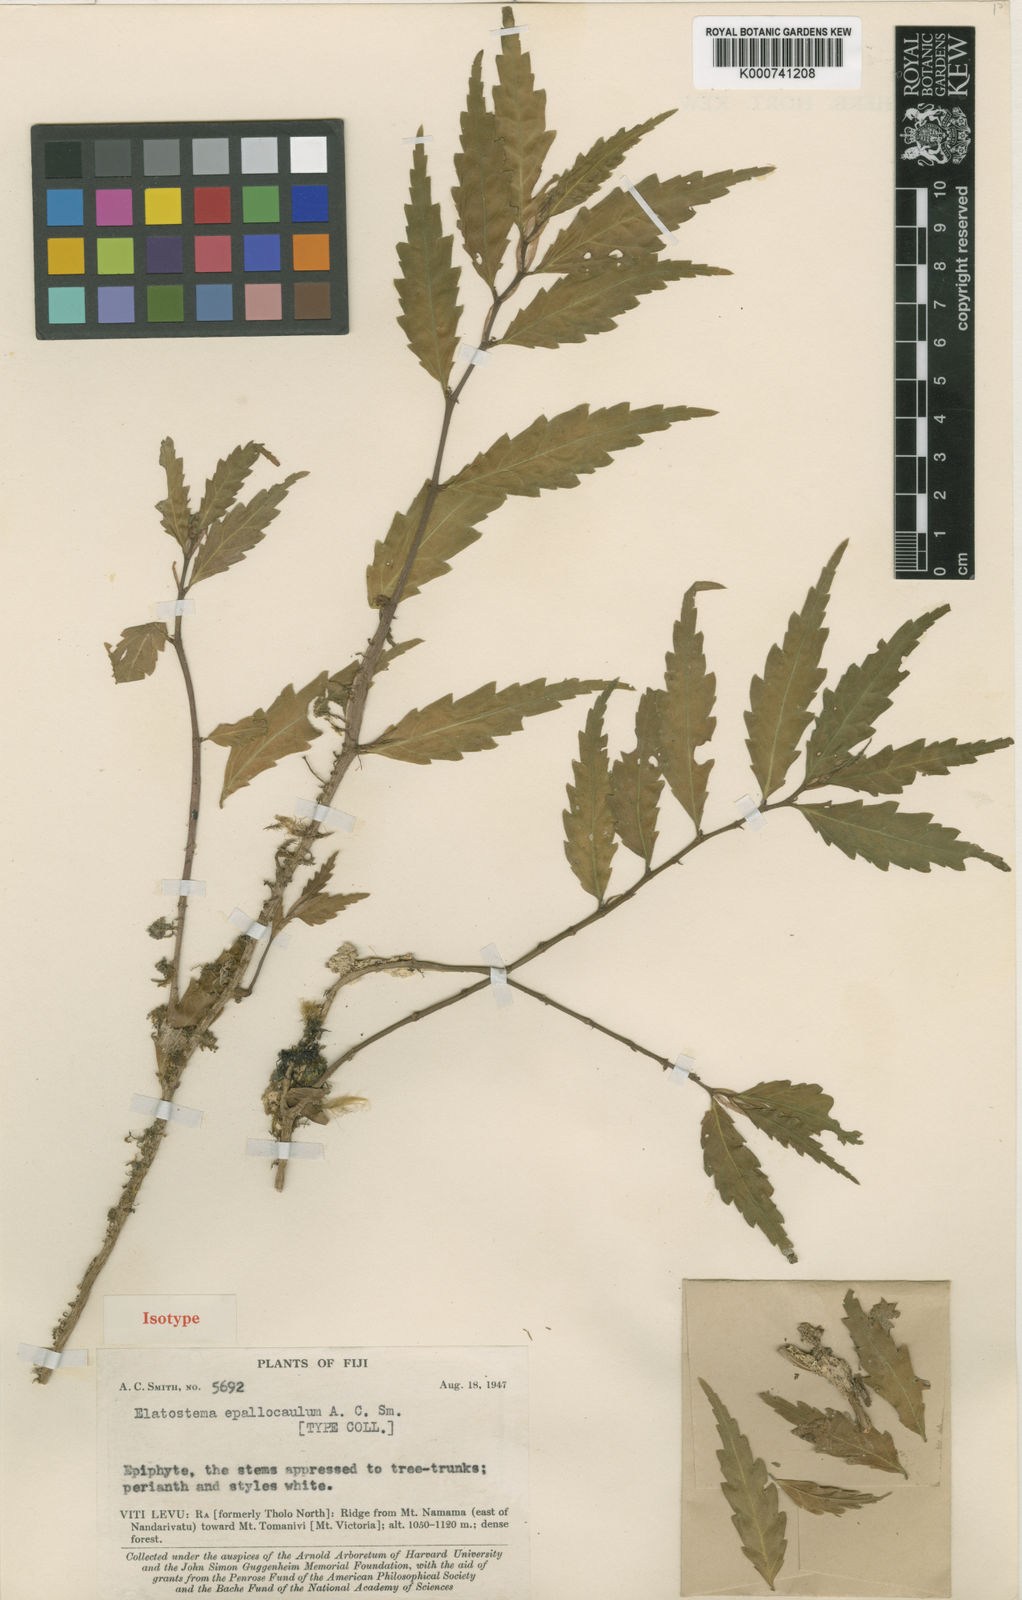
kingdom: Plantae
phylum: Tracheophyta
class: Magnoliopsida
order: Rosales
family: Urticaceae
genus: Elatostema
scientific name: Elatostema epallocaulum
